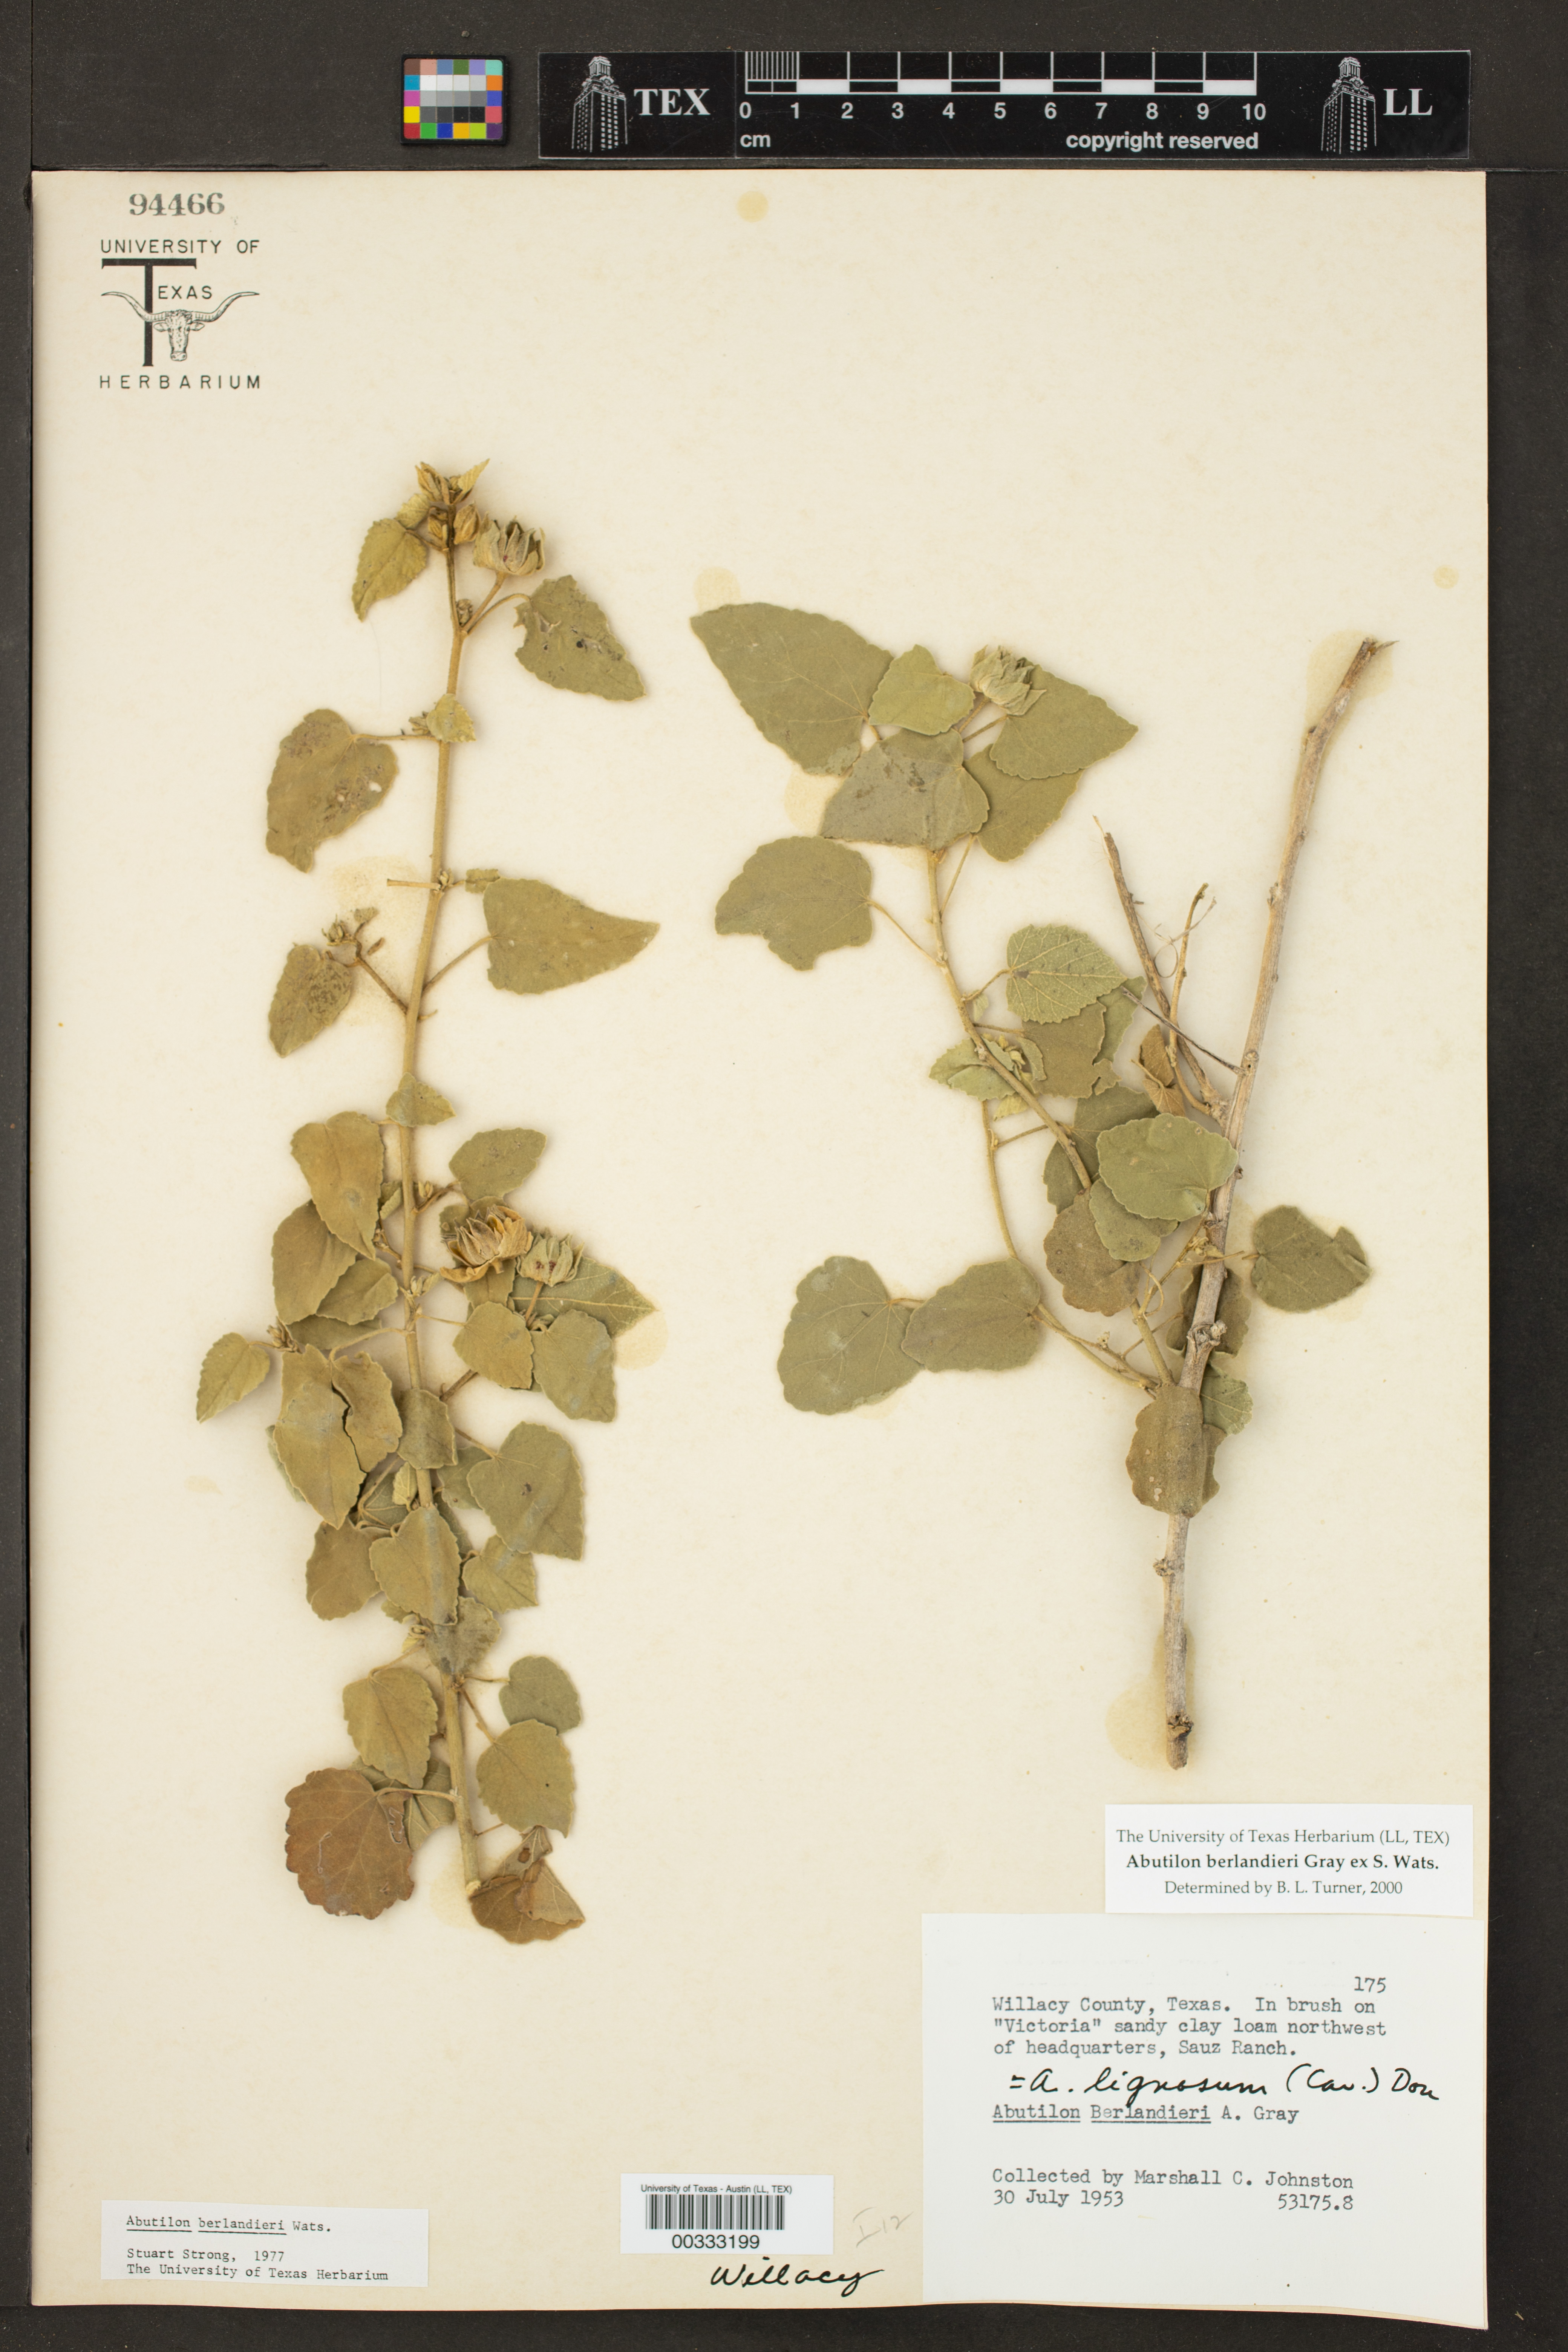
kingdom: Plantae
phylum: Tracheophyta
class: Magnoliopsida
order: Malvales
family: Malvaceae
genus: Abutilon
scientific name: Abutilon berlandieri
